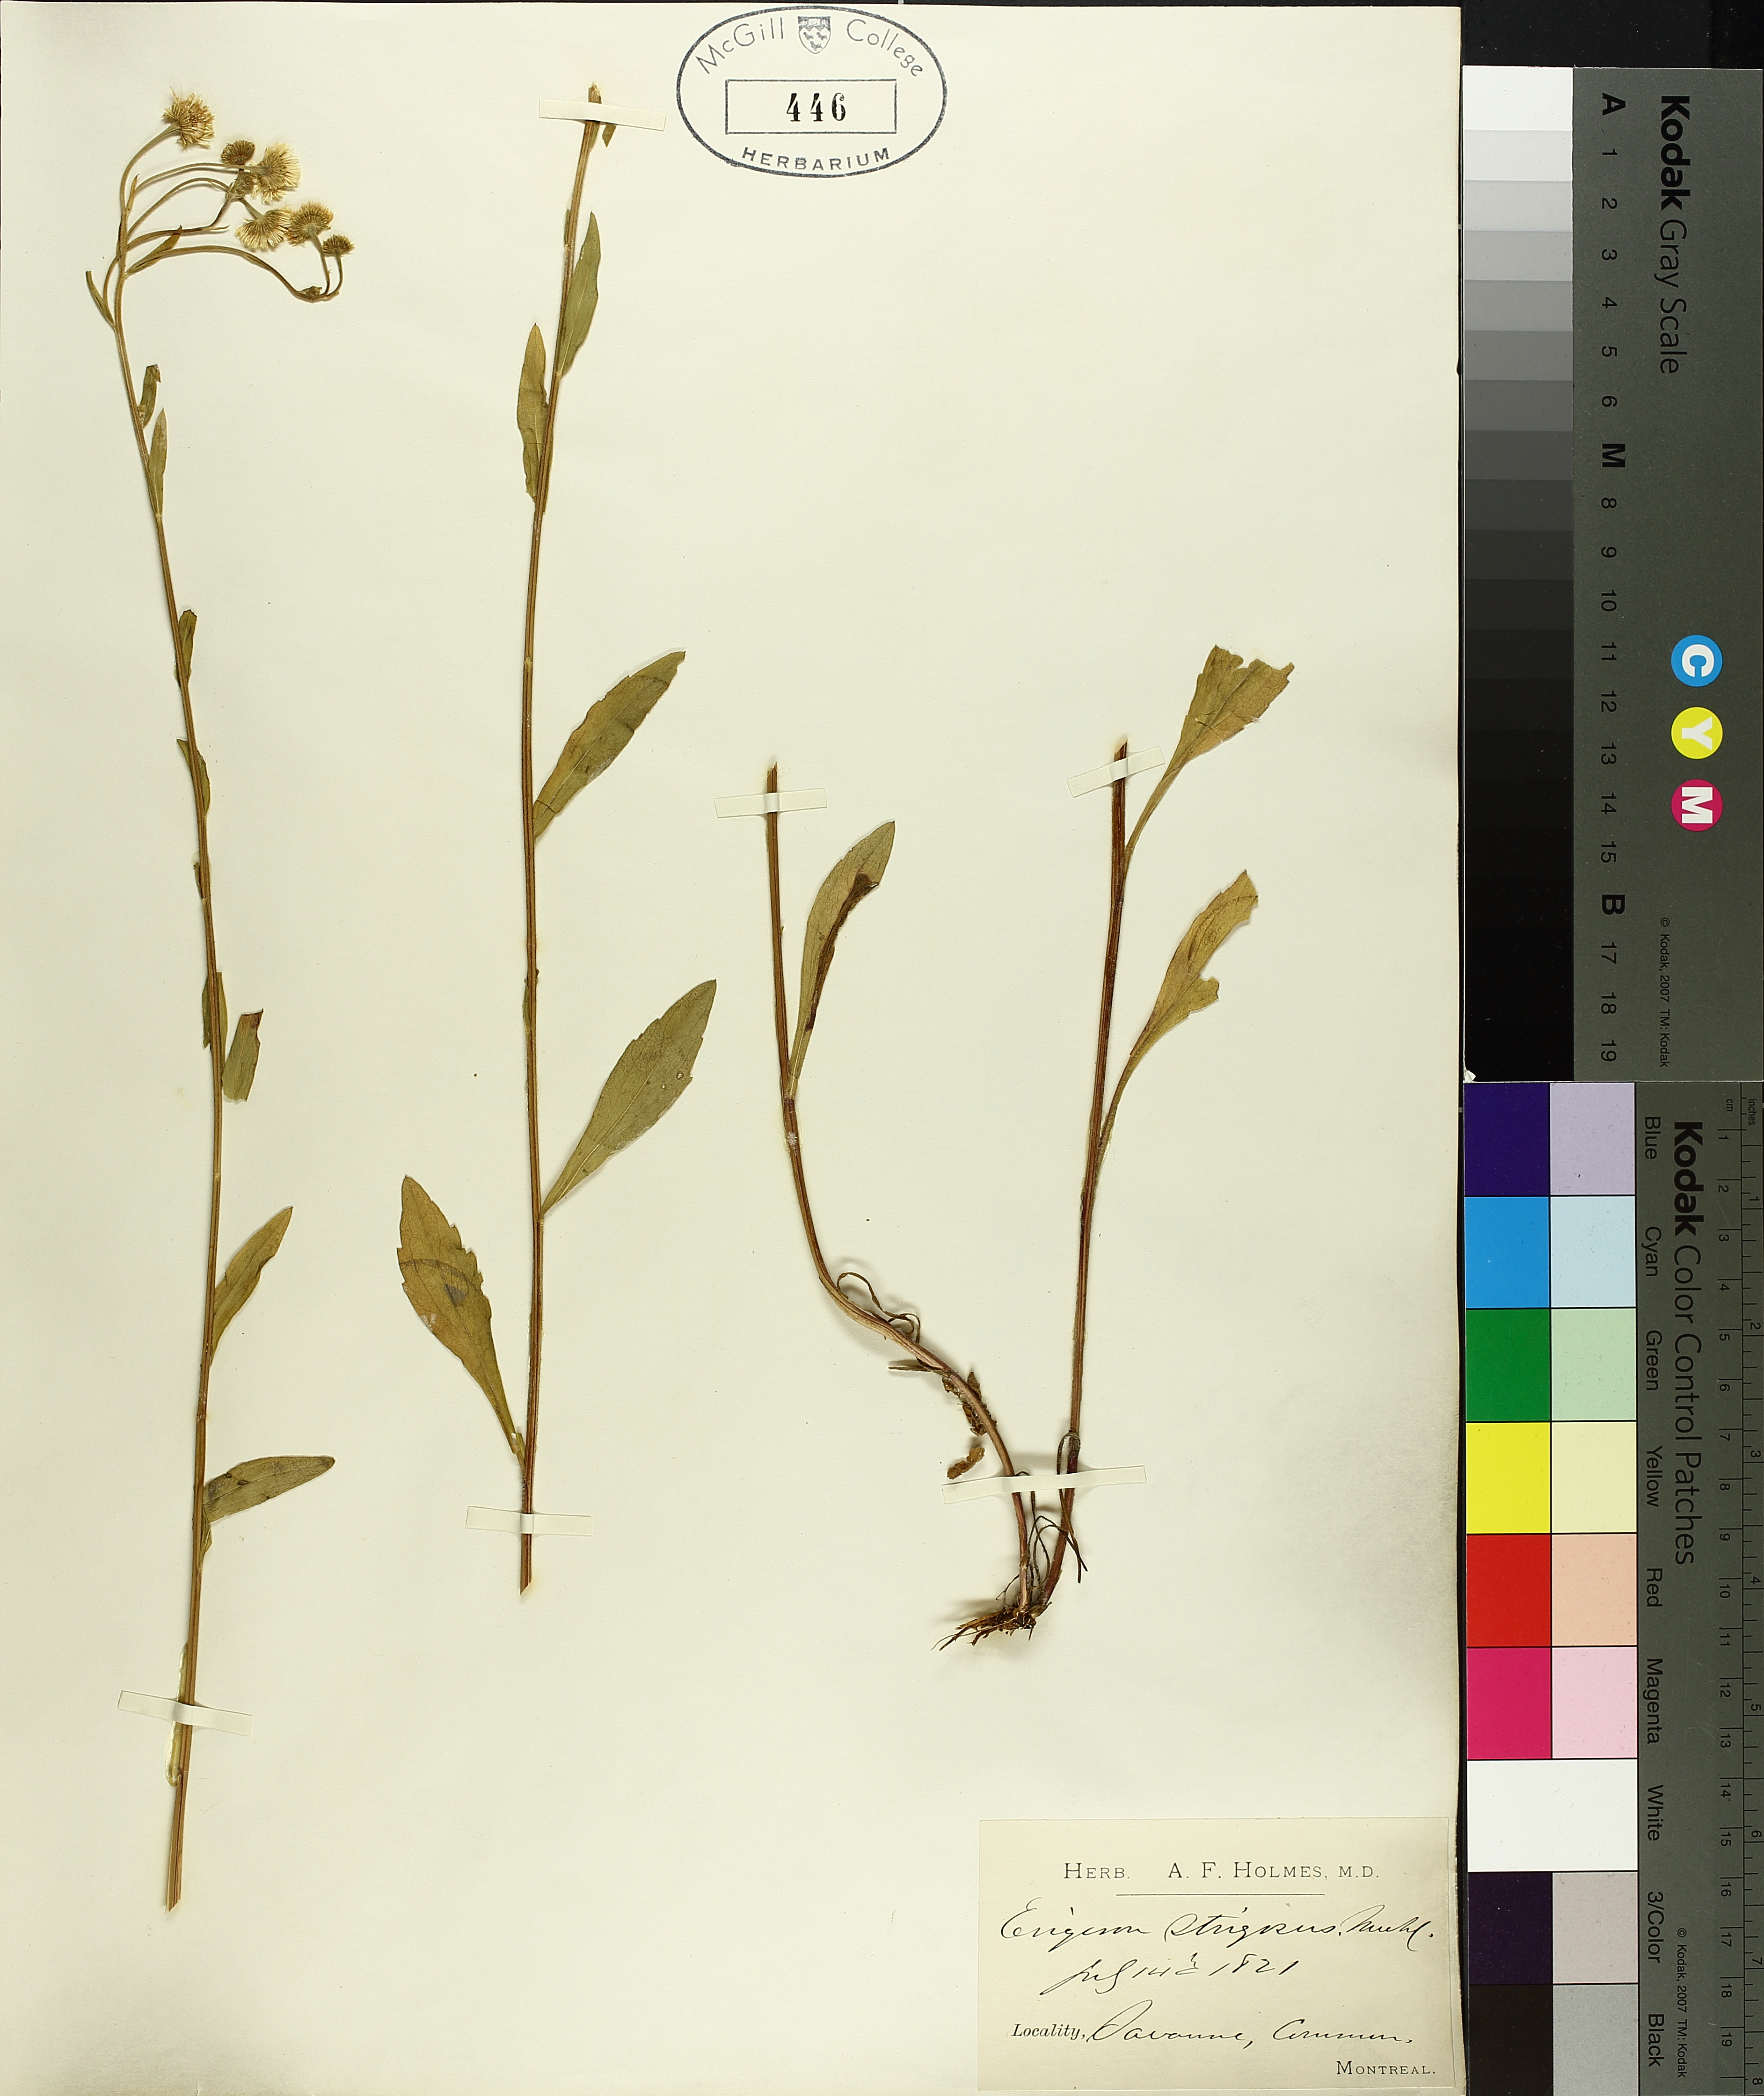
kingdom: Plantae
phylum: Tracheophyta
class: Magnoliopsida
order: Asterales
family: Asteraceae
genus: Erigeron
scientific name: Erigeron strigosus
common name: Common eastern fleabane
